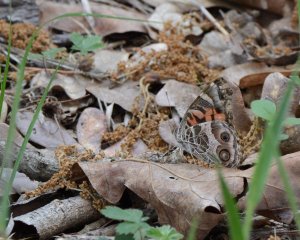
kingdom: Animalia
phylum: Arthropoda
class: Insecta
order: Lepidoptera
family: Nymphalidae
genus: Vanessa
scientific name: Vanessa virginiensis
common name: American Lady
